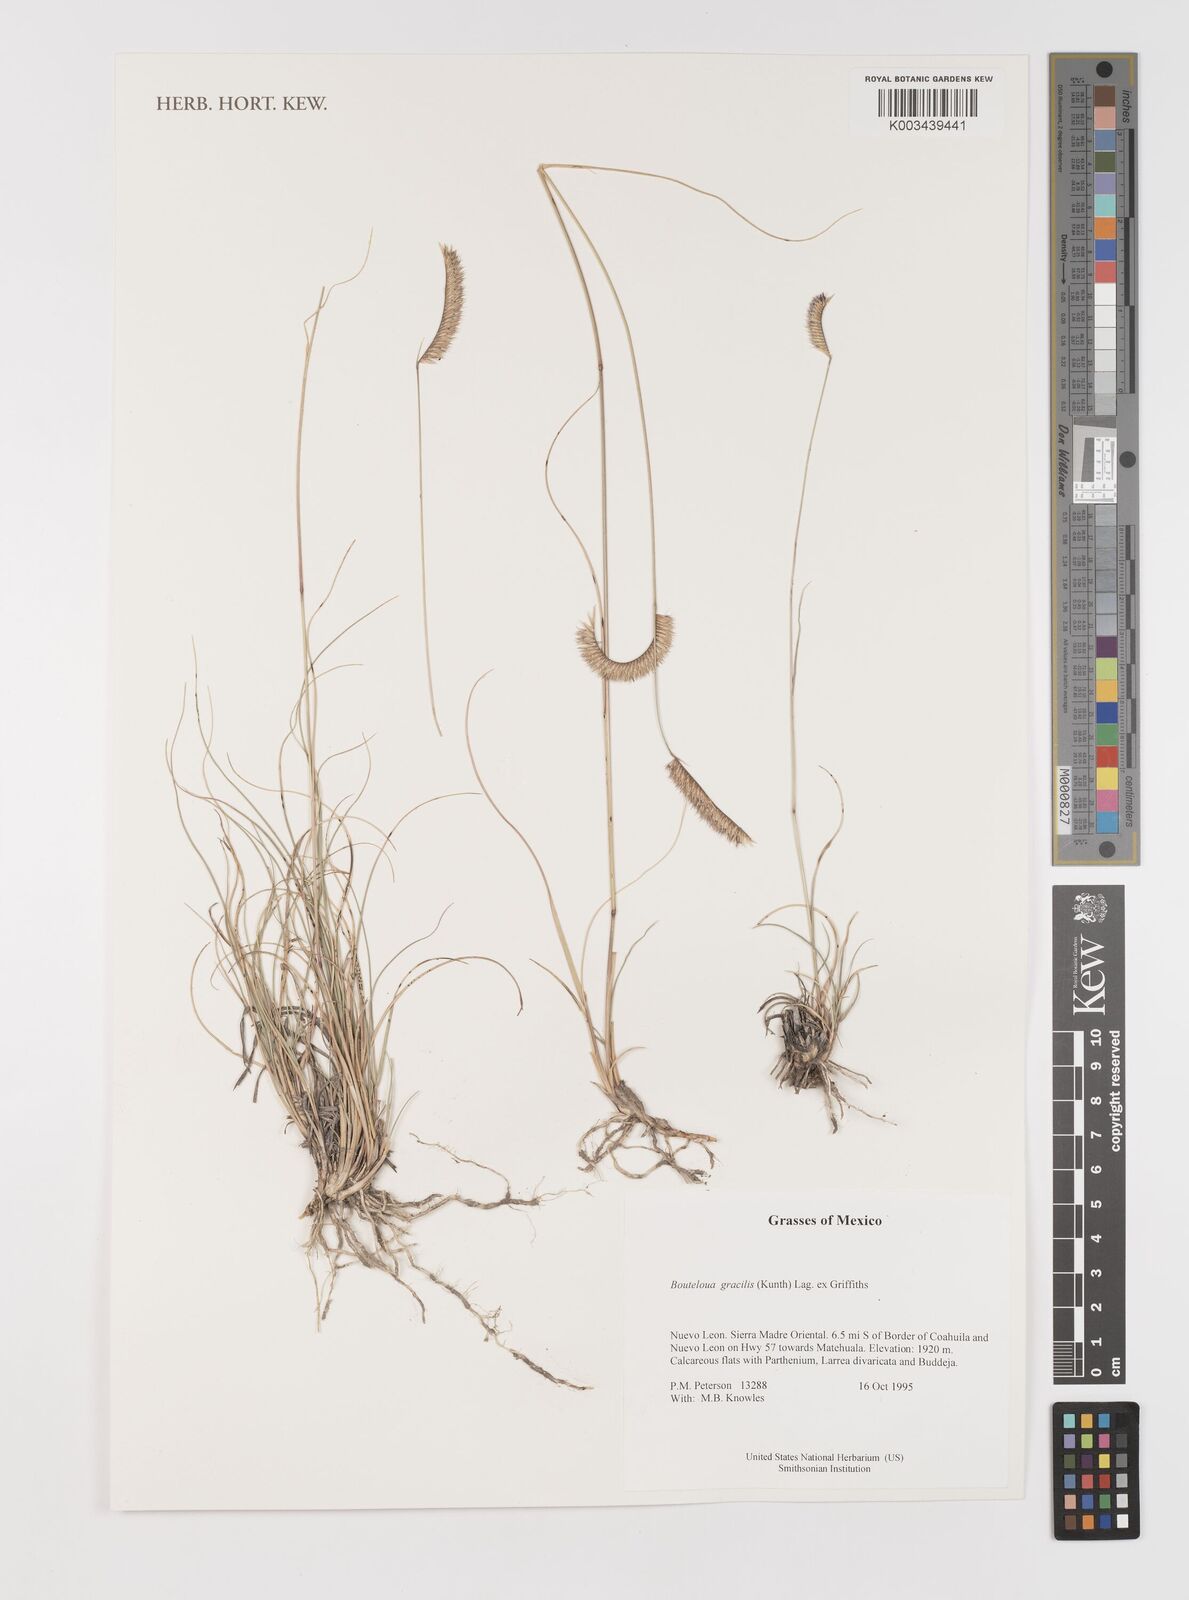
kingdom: Plantae
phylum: Tracheophyta
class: Liliopsida
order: Poales
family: Poaceae
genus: Bouteloua
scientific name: Bouteloua aristidoides
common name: Needle grama
